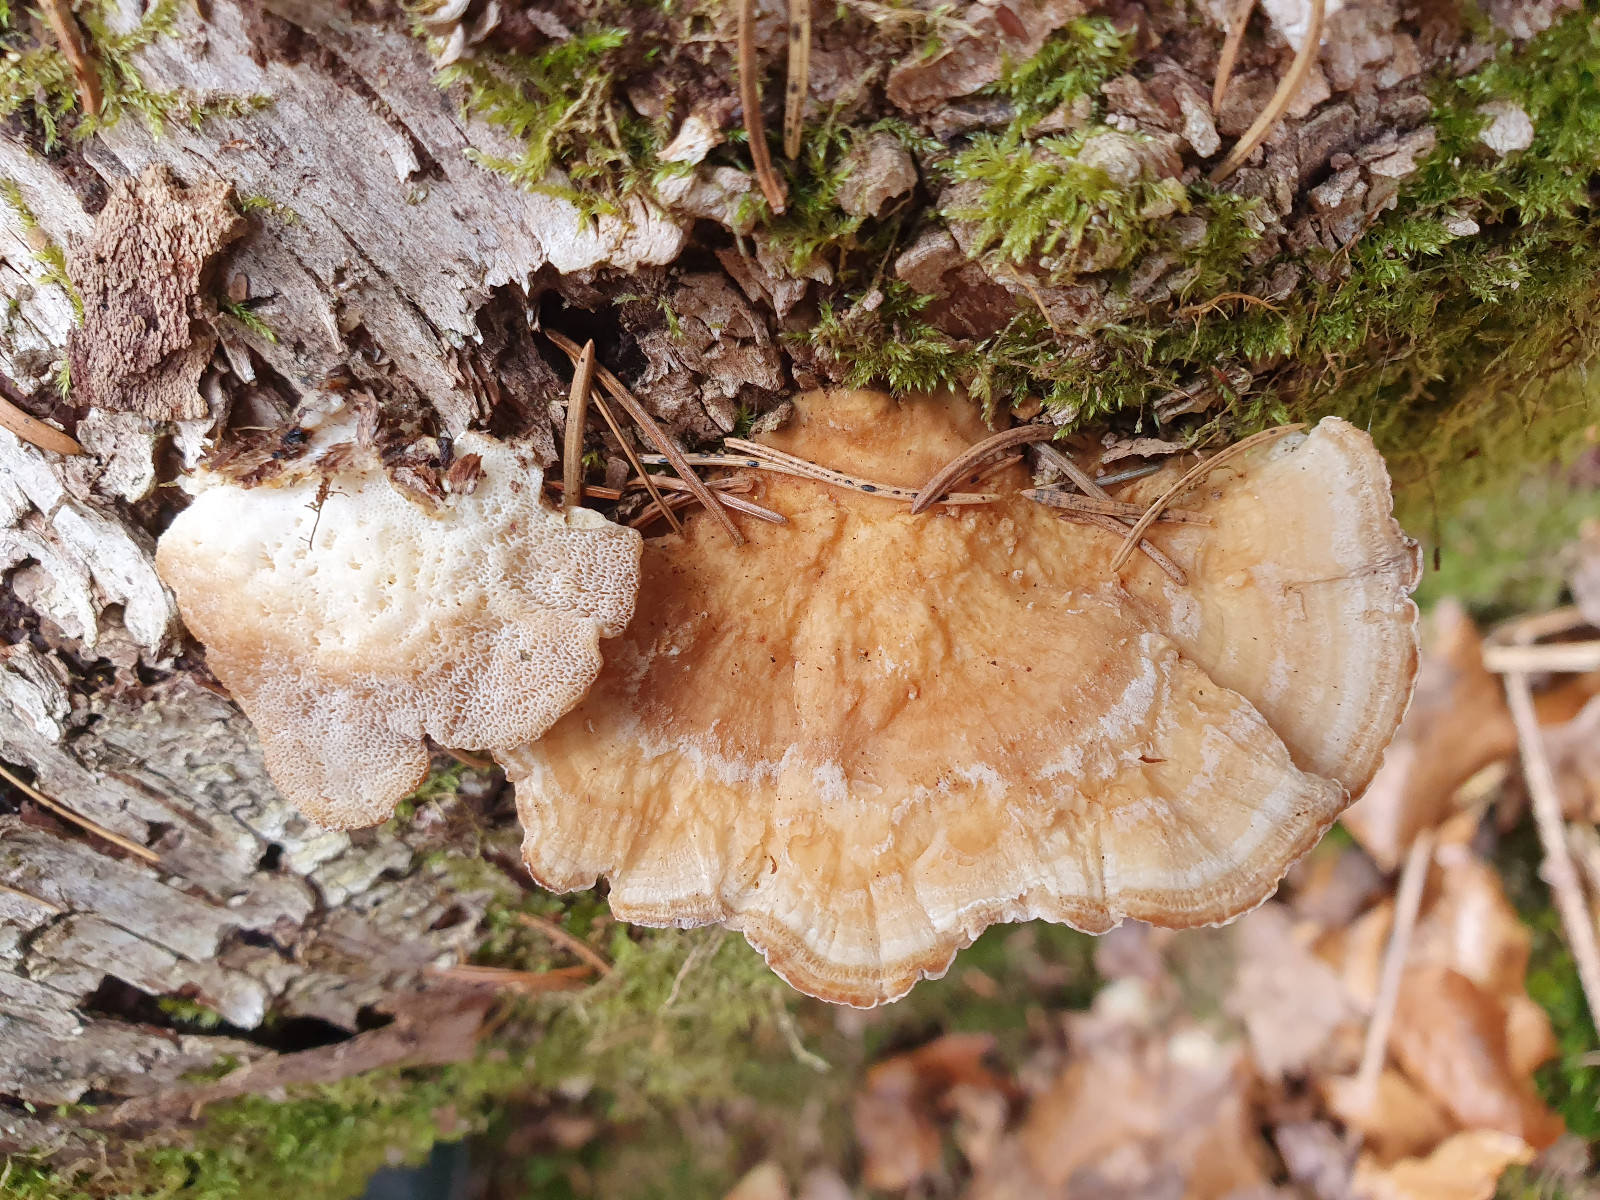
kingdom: Fungi
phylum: Basidiomycota
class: Agaricomycetes
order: Polyporales
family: Polyporaceae
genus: Trametes
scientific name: Trametes ochracea
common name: bæltet læderporesvamp
